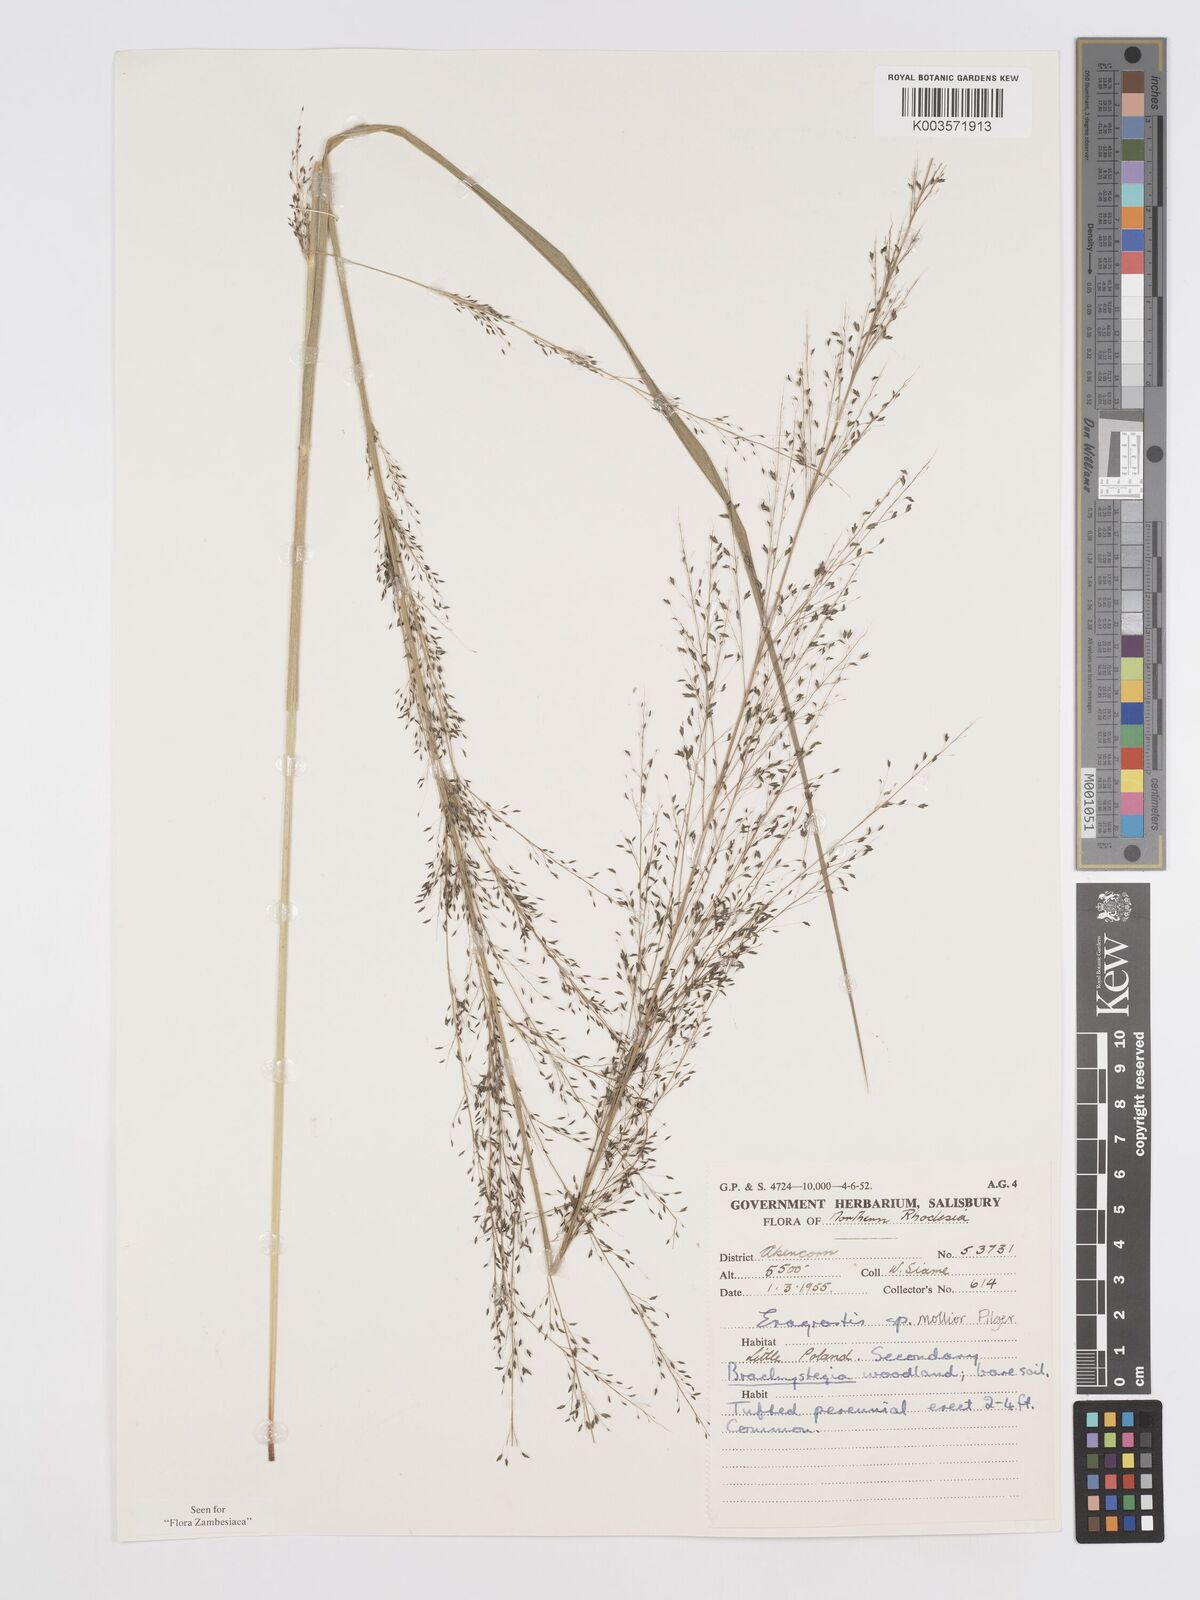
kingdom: Plantae
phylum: Tracheophyta
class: Liliopsida
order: Poales
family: Poaceae
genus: Eragrostis
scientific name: Eragrostis mollior
